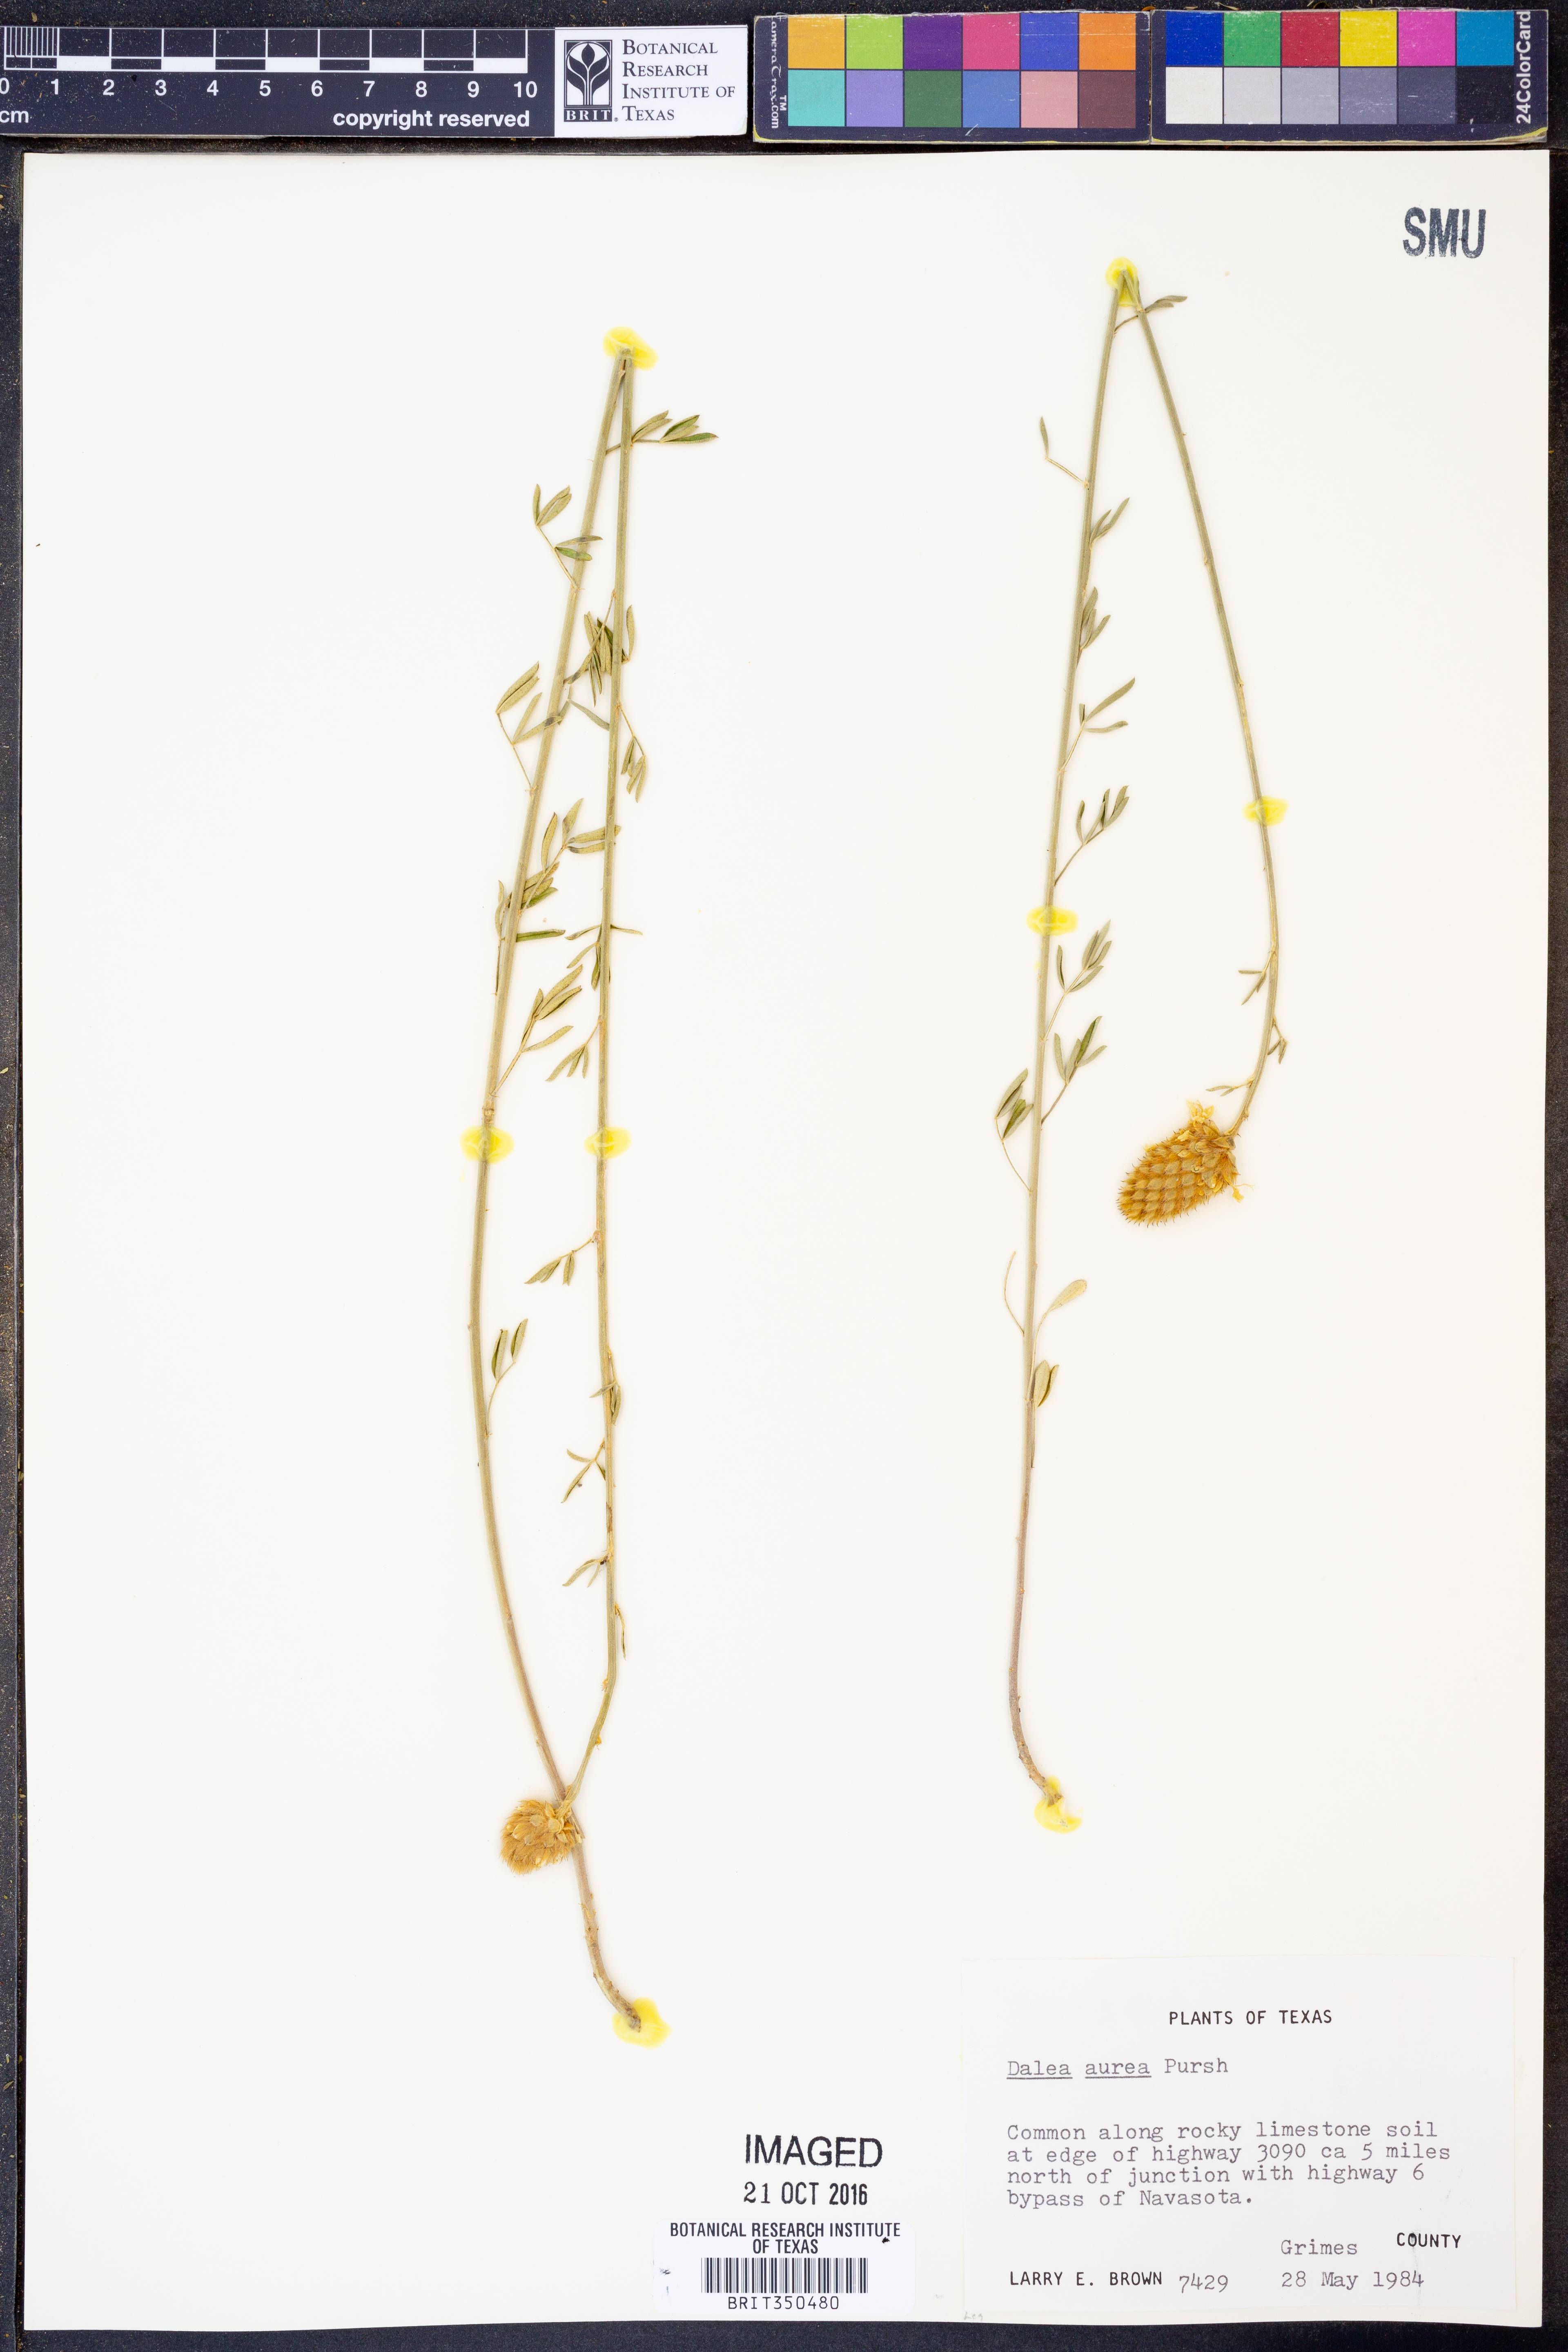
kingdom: Plantae
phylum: Tracheophyta
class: Magnoliopsida
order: Fabales
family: Fabaceae
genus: Dalea
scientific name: Dalea aurea
